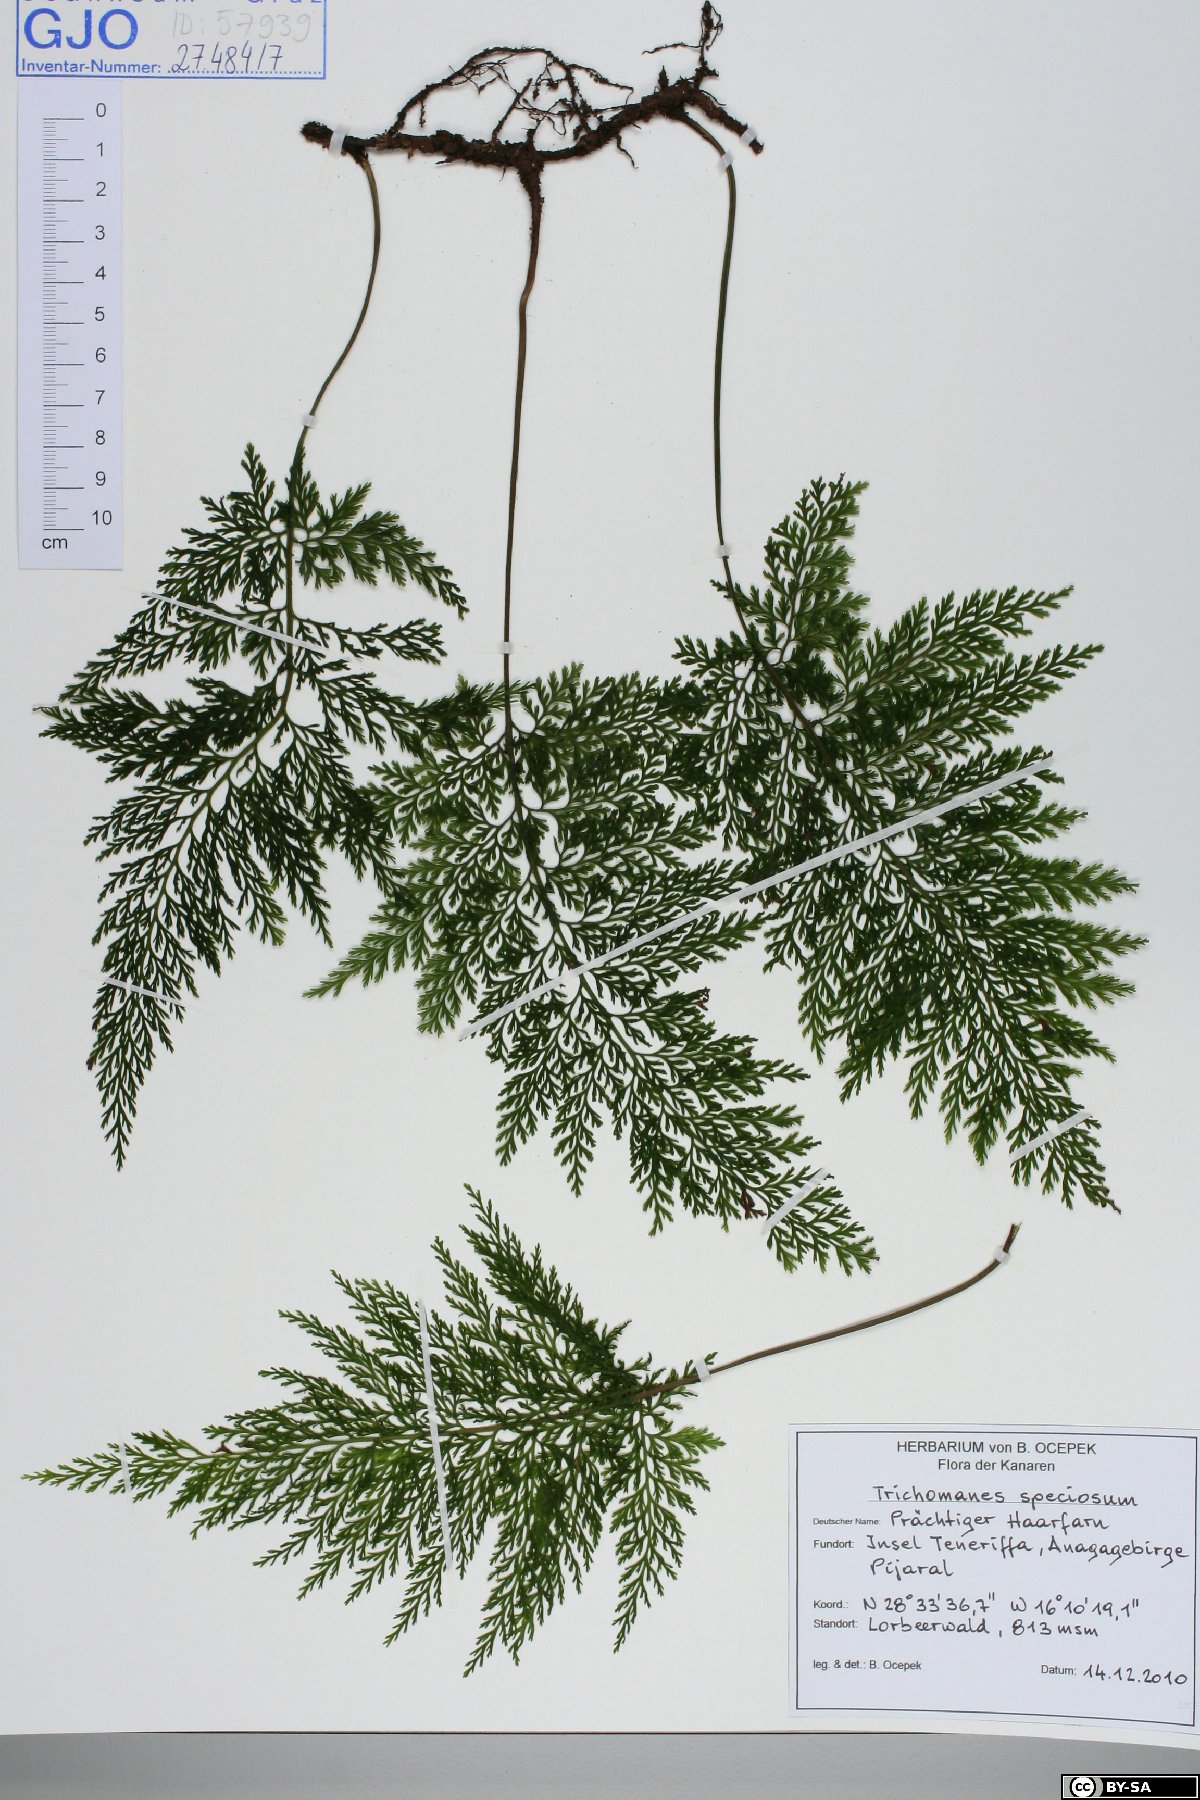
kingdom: Plantae
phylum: Tracheophyta
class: Polypodiopsida
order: Hymenophyllales
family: Hymenophyllaceae
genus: Vandenboschia
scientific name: Vandenboschia speciosa
